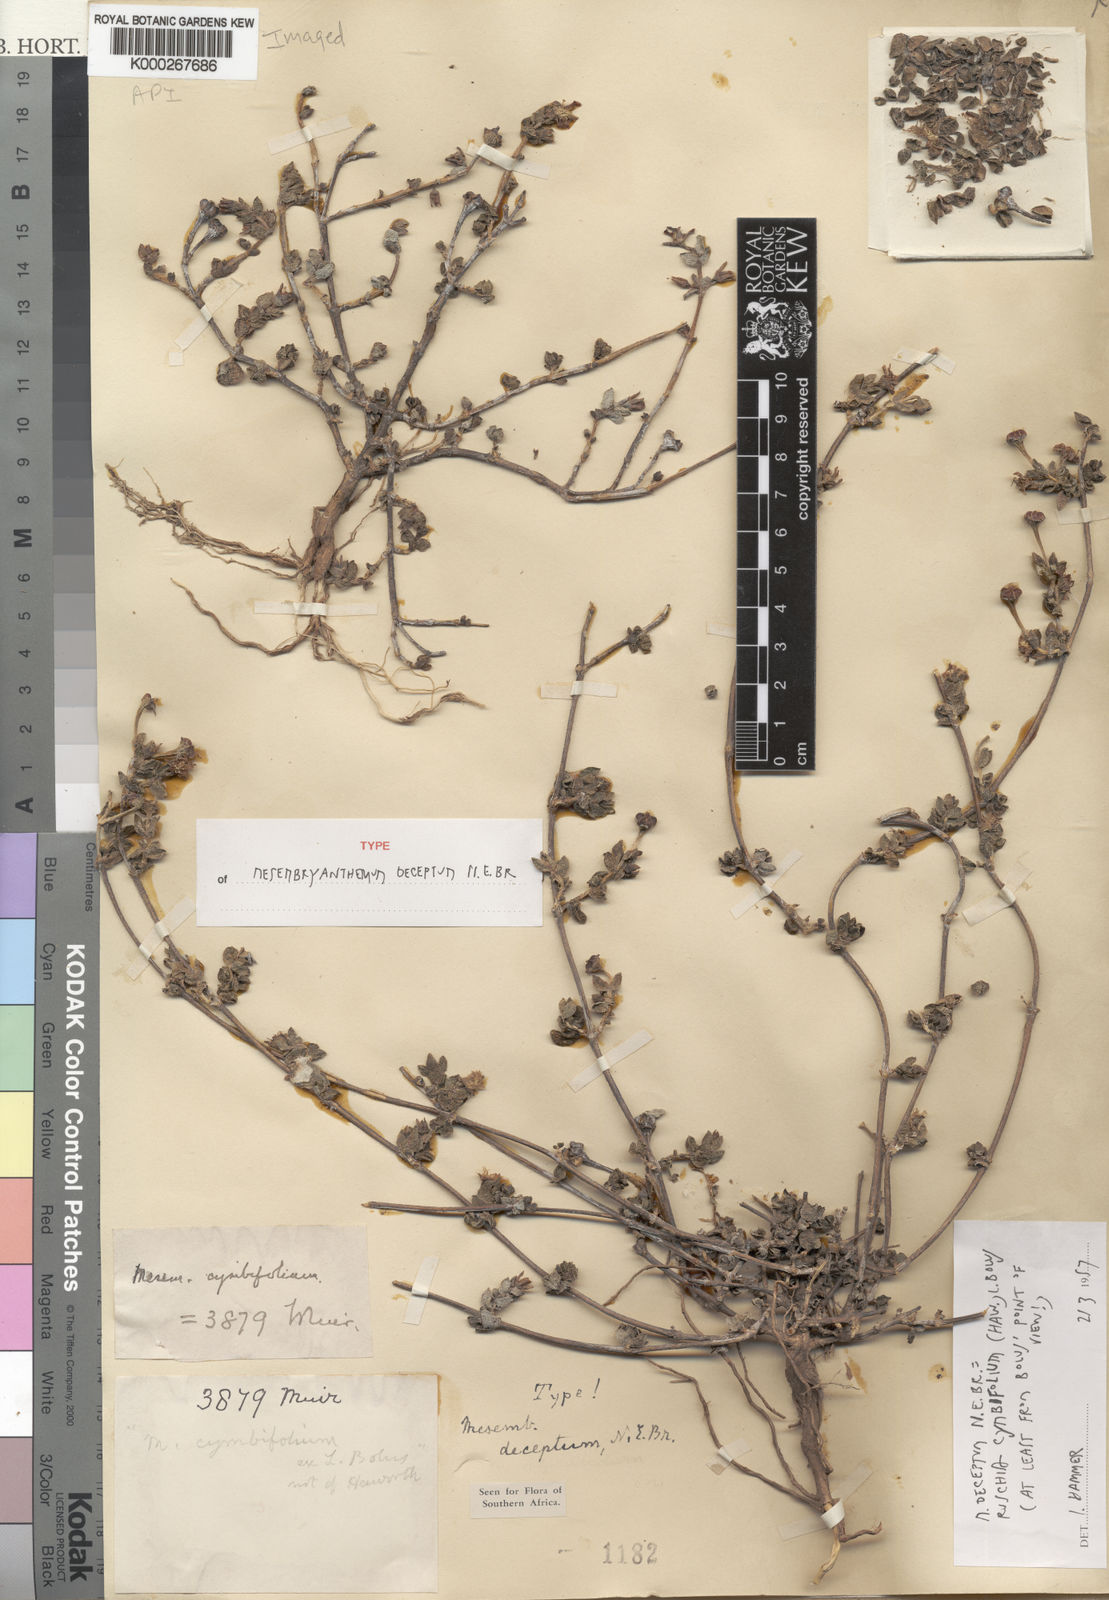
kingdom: Plantae
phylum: Tracheophyta
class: Magnoliopsida
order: Caryophyllales
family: Aizoaceae
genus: Ruschia
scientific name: Ruschia
